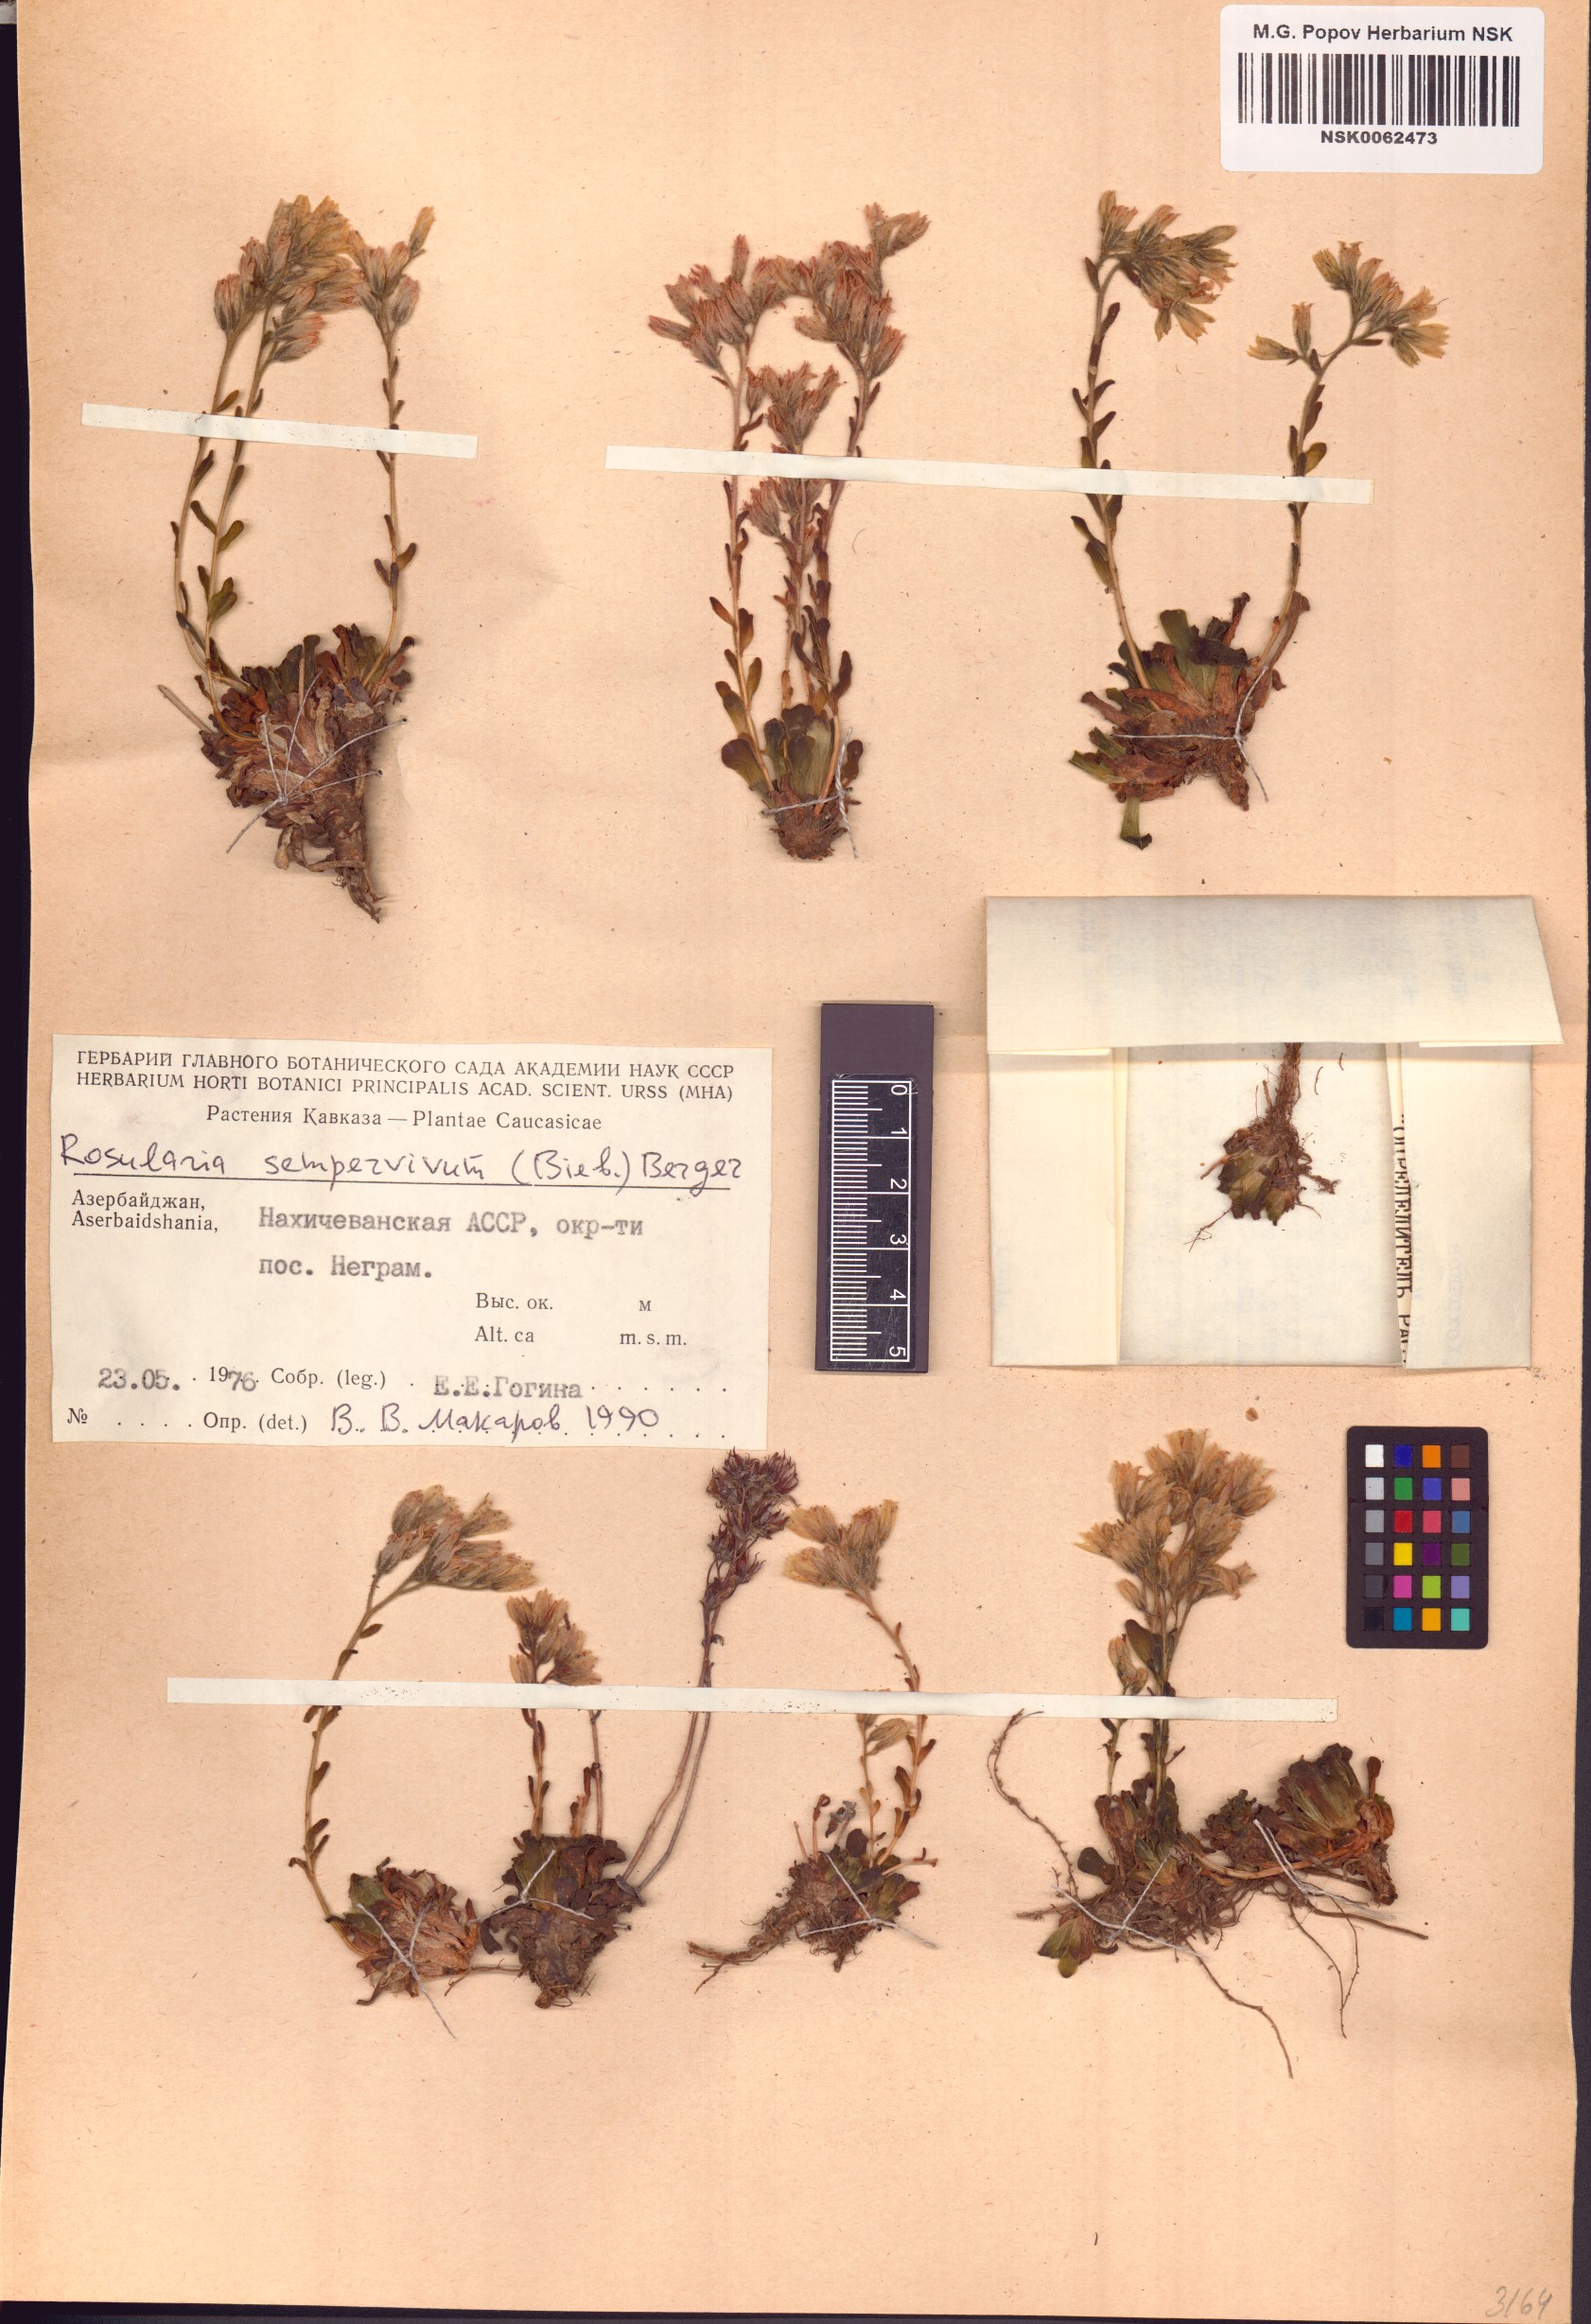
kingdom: Plantae
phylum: Tracheophyta
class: Magnoliopsida
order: Saxifragales
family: Crassulaceae
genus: Rosularia
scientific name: Rosularia sempervivum
